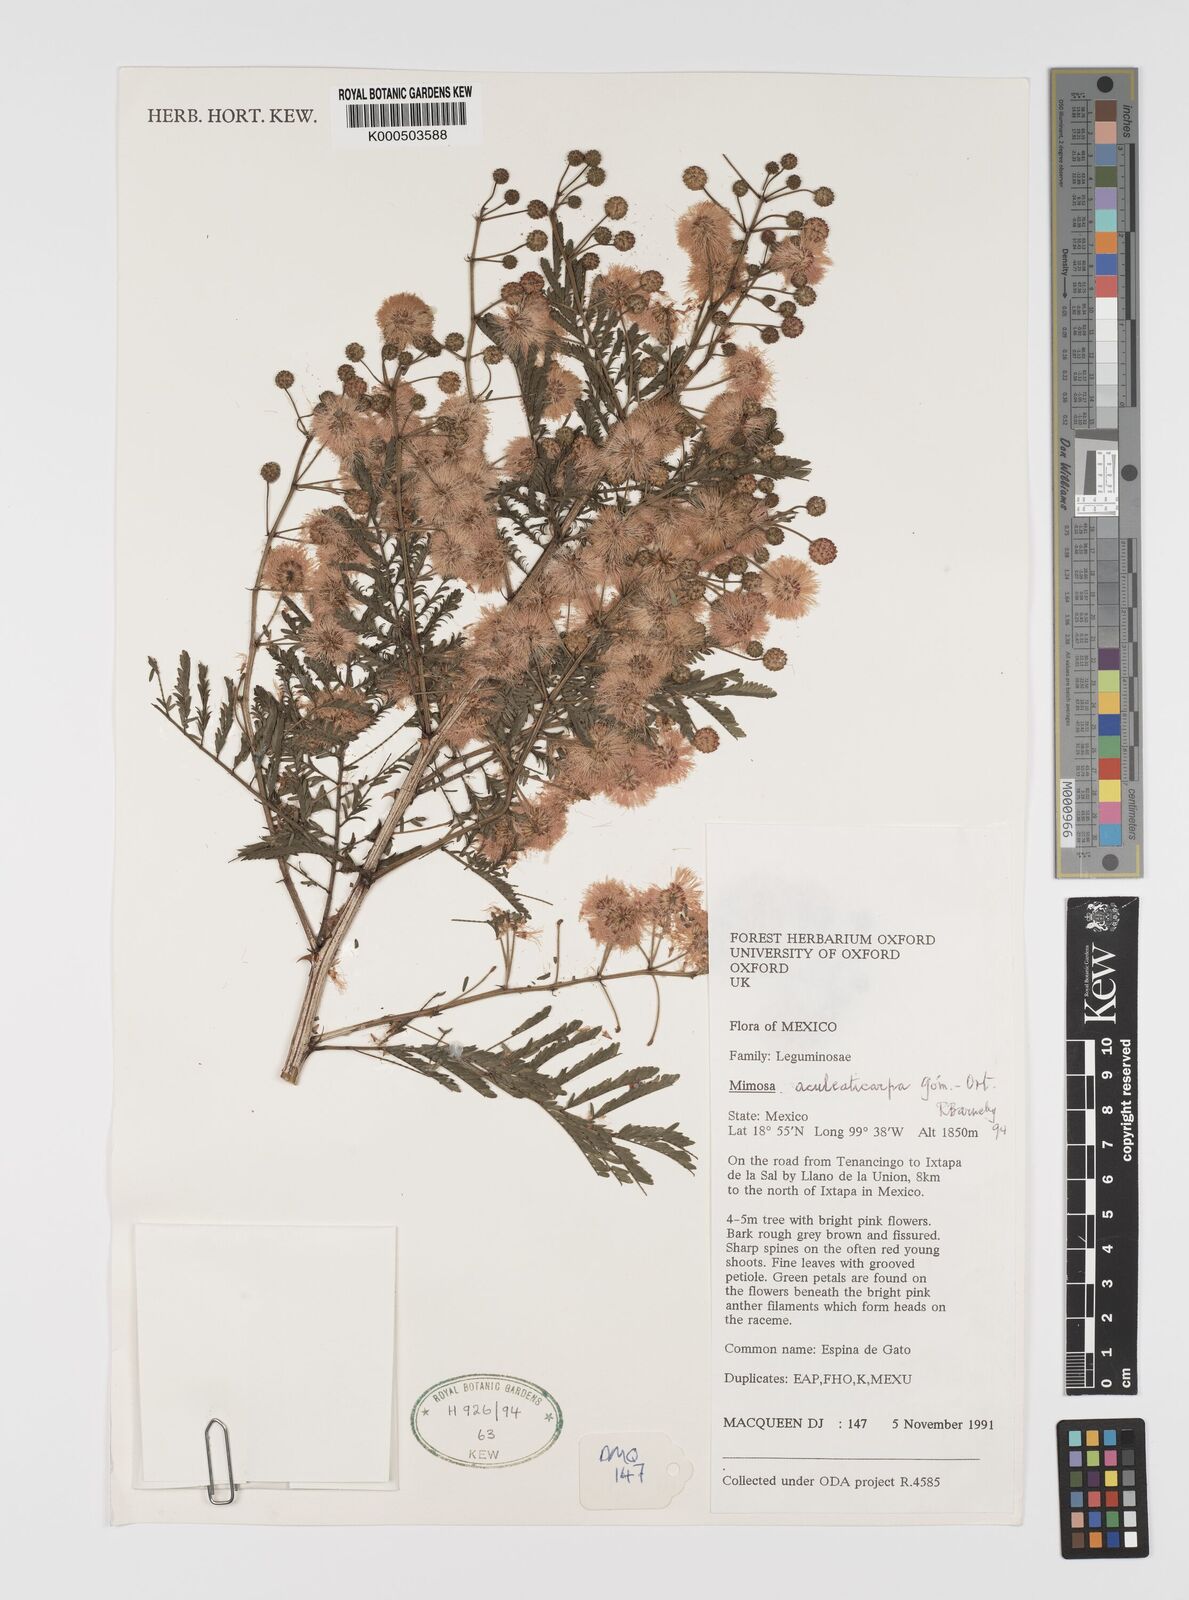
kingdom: Plantae
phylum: Tracheophyta
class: Magnoliopsida
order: Fabales
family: Fabaceae
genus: Mimosa
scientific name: Mimosa aculeaticarpa
